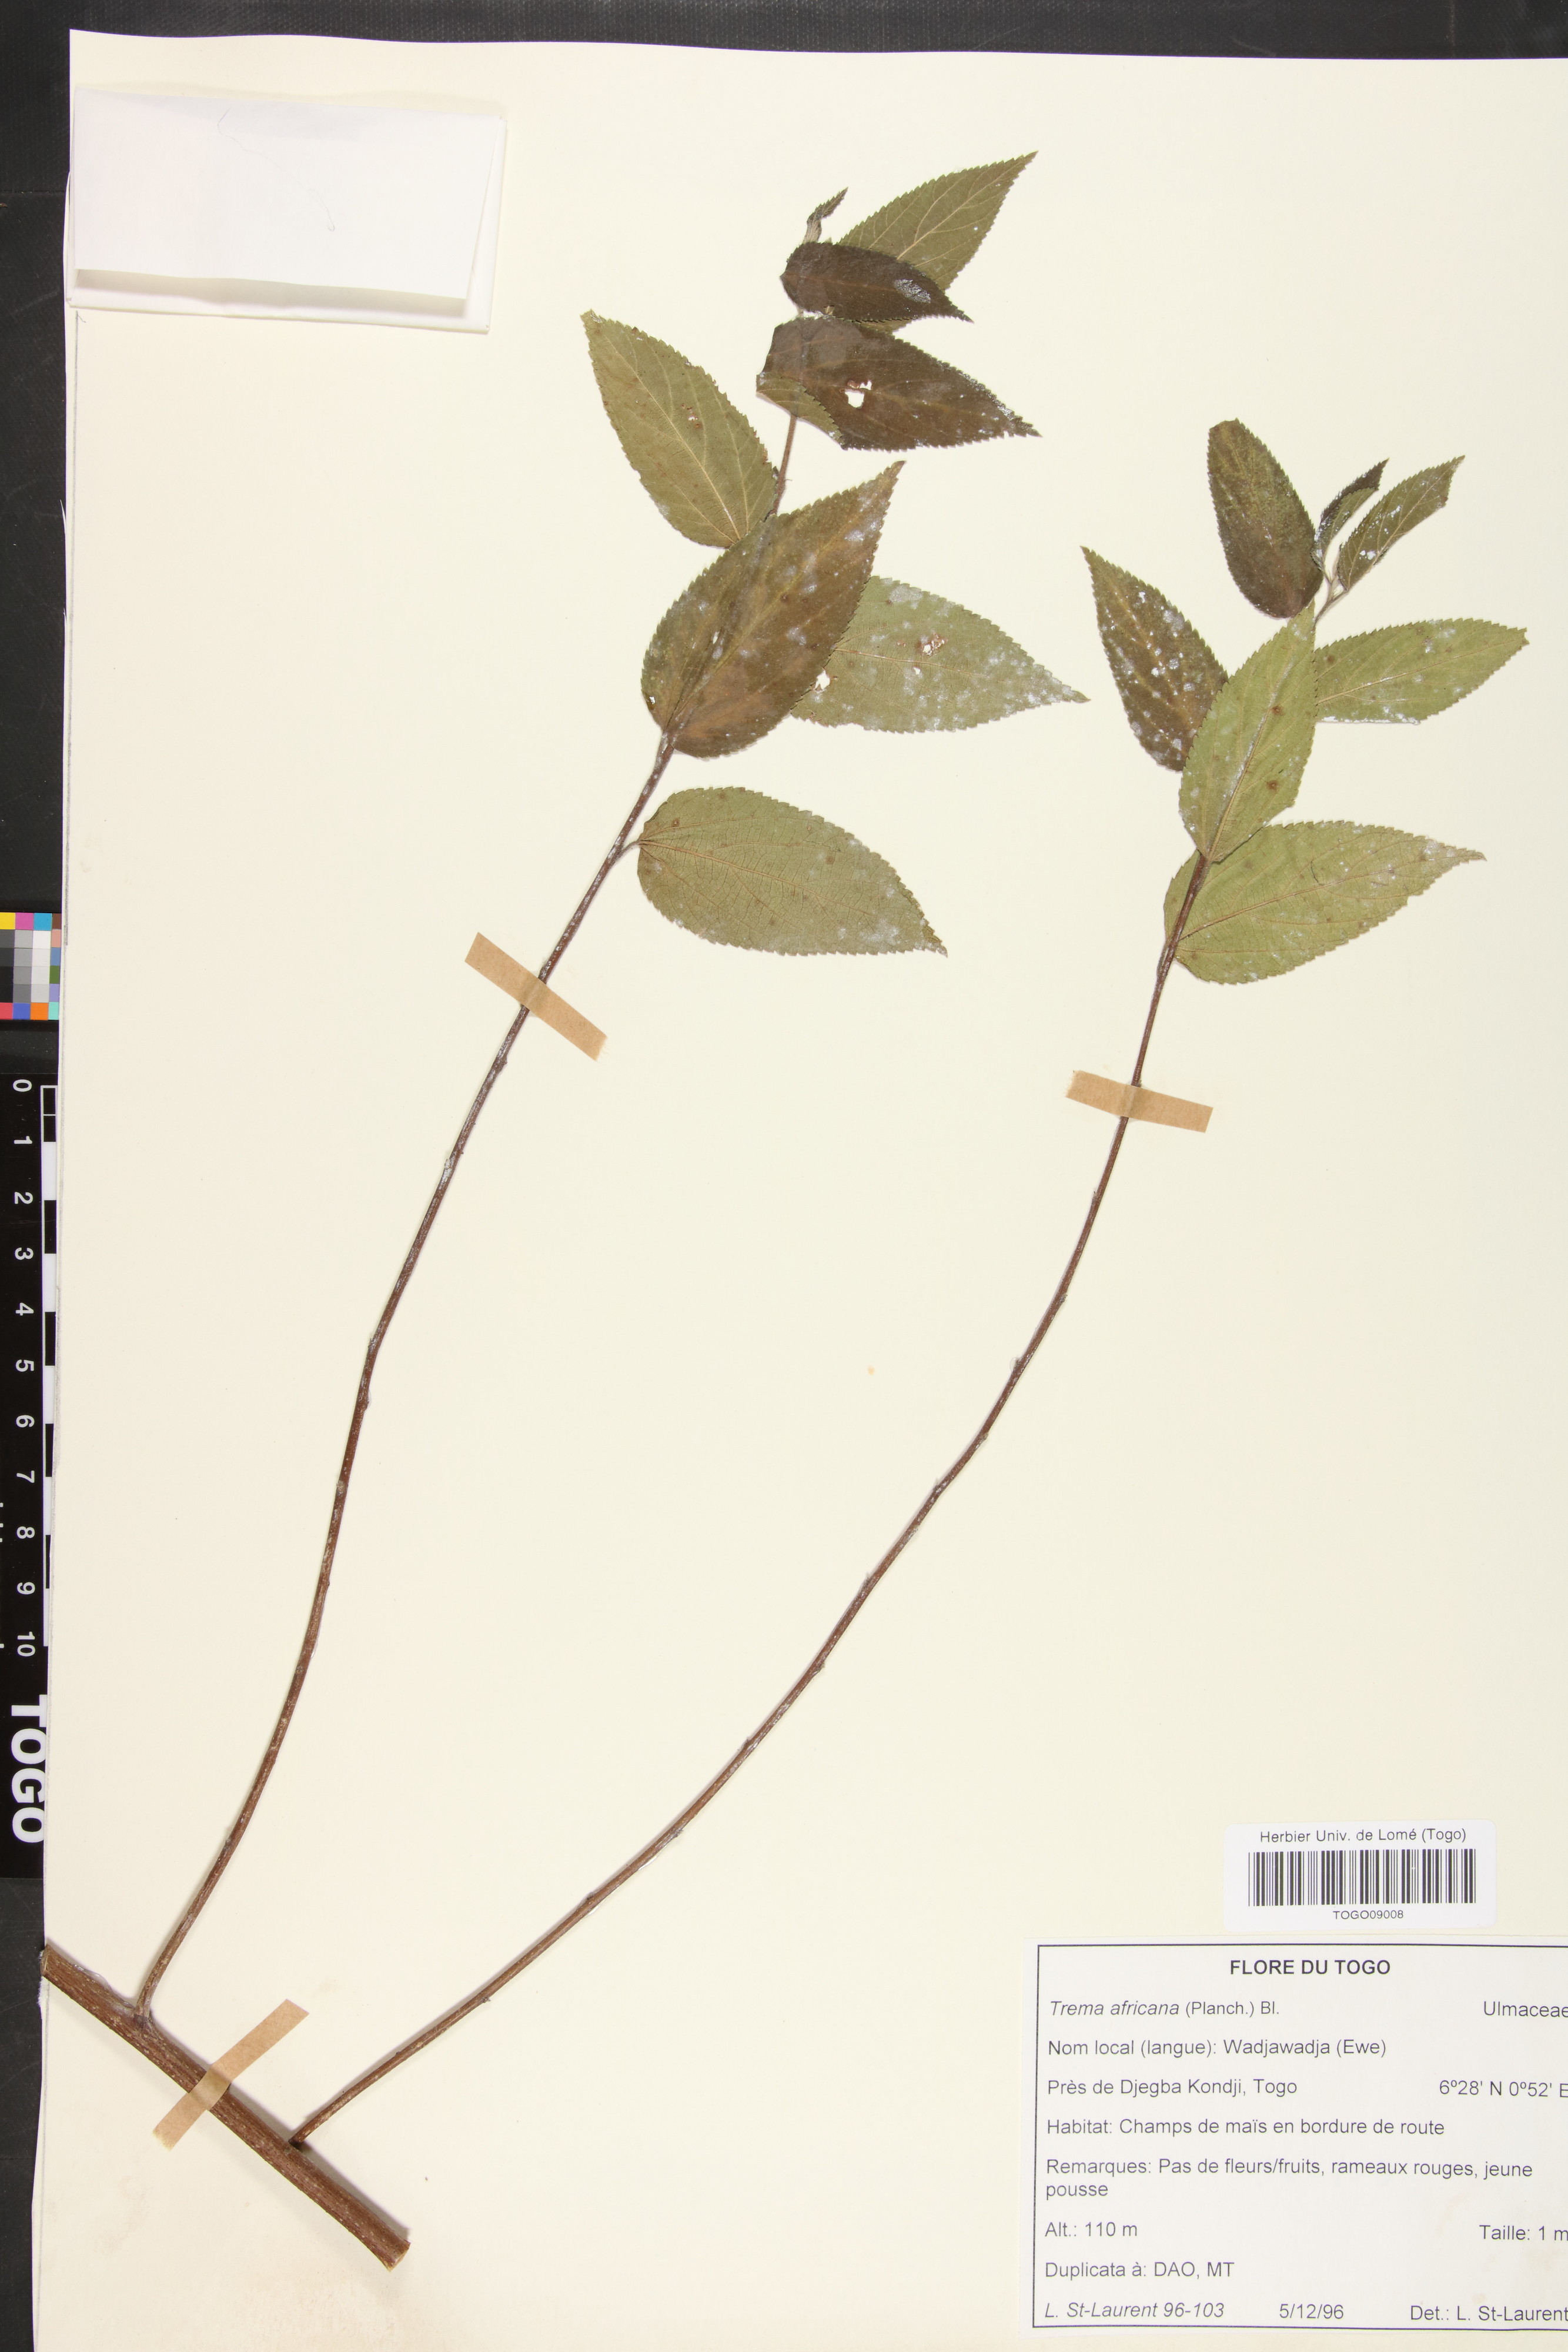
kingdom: Plantae
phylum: Tracheophyta
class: Magnoliopsida
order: Rosales
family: Cannabaceae
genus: Trema
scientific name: Trema orientale
